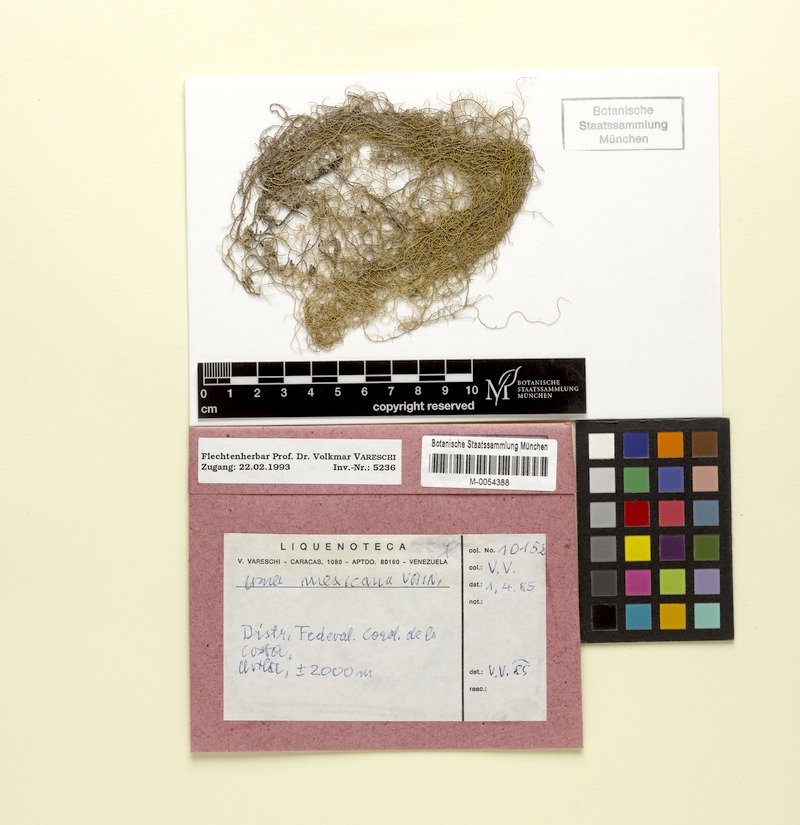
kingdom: Fungi
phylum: Ascomycota
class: Lecanoromycetes
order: Lecanorales
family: Parmeliaceae
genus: Usnea
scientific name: Usnea
